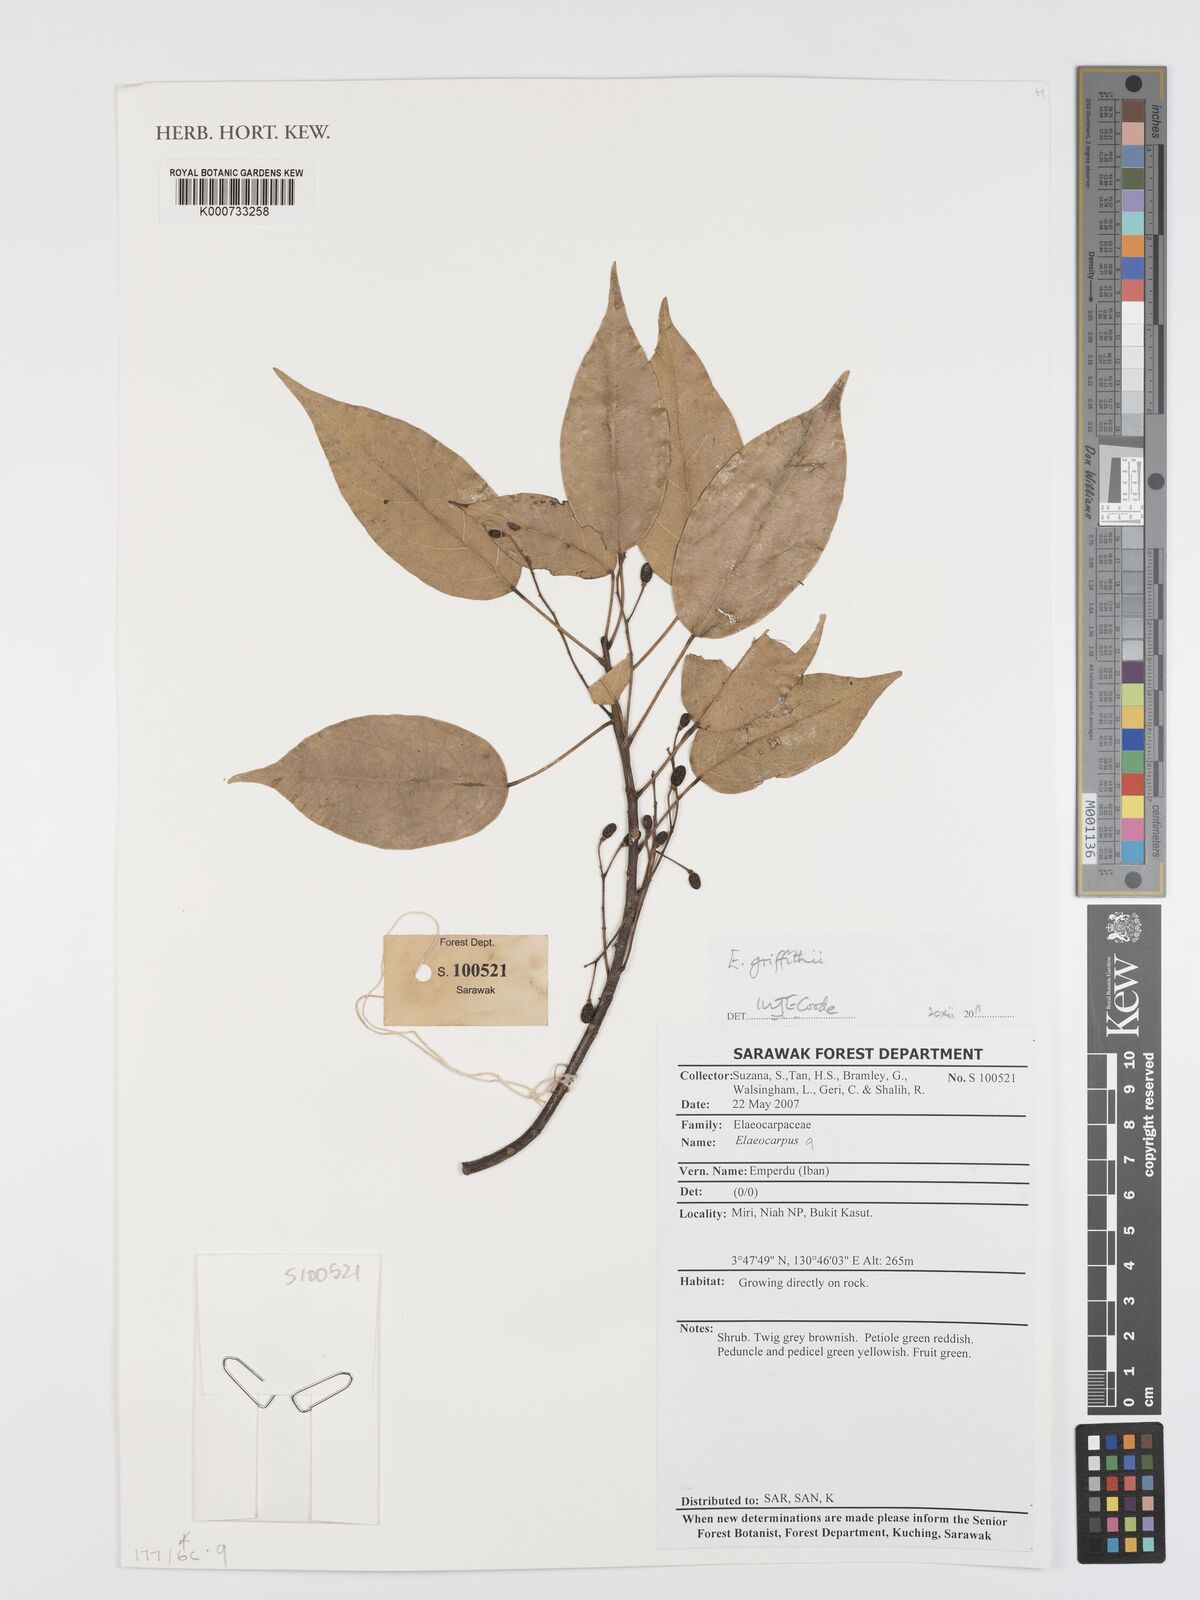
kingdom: Plantae
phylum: Tracheophyta
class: Magnoliopsida
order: Oxalidales
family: Elaeocarpaceae
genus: Elaeocarpus
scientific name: Elaeocarpus griffithii
